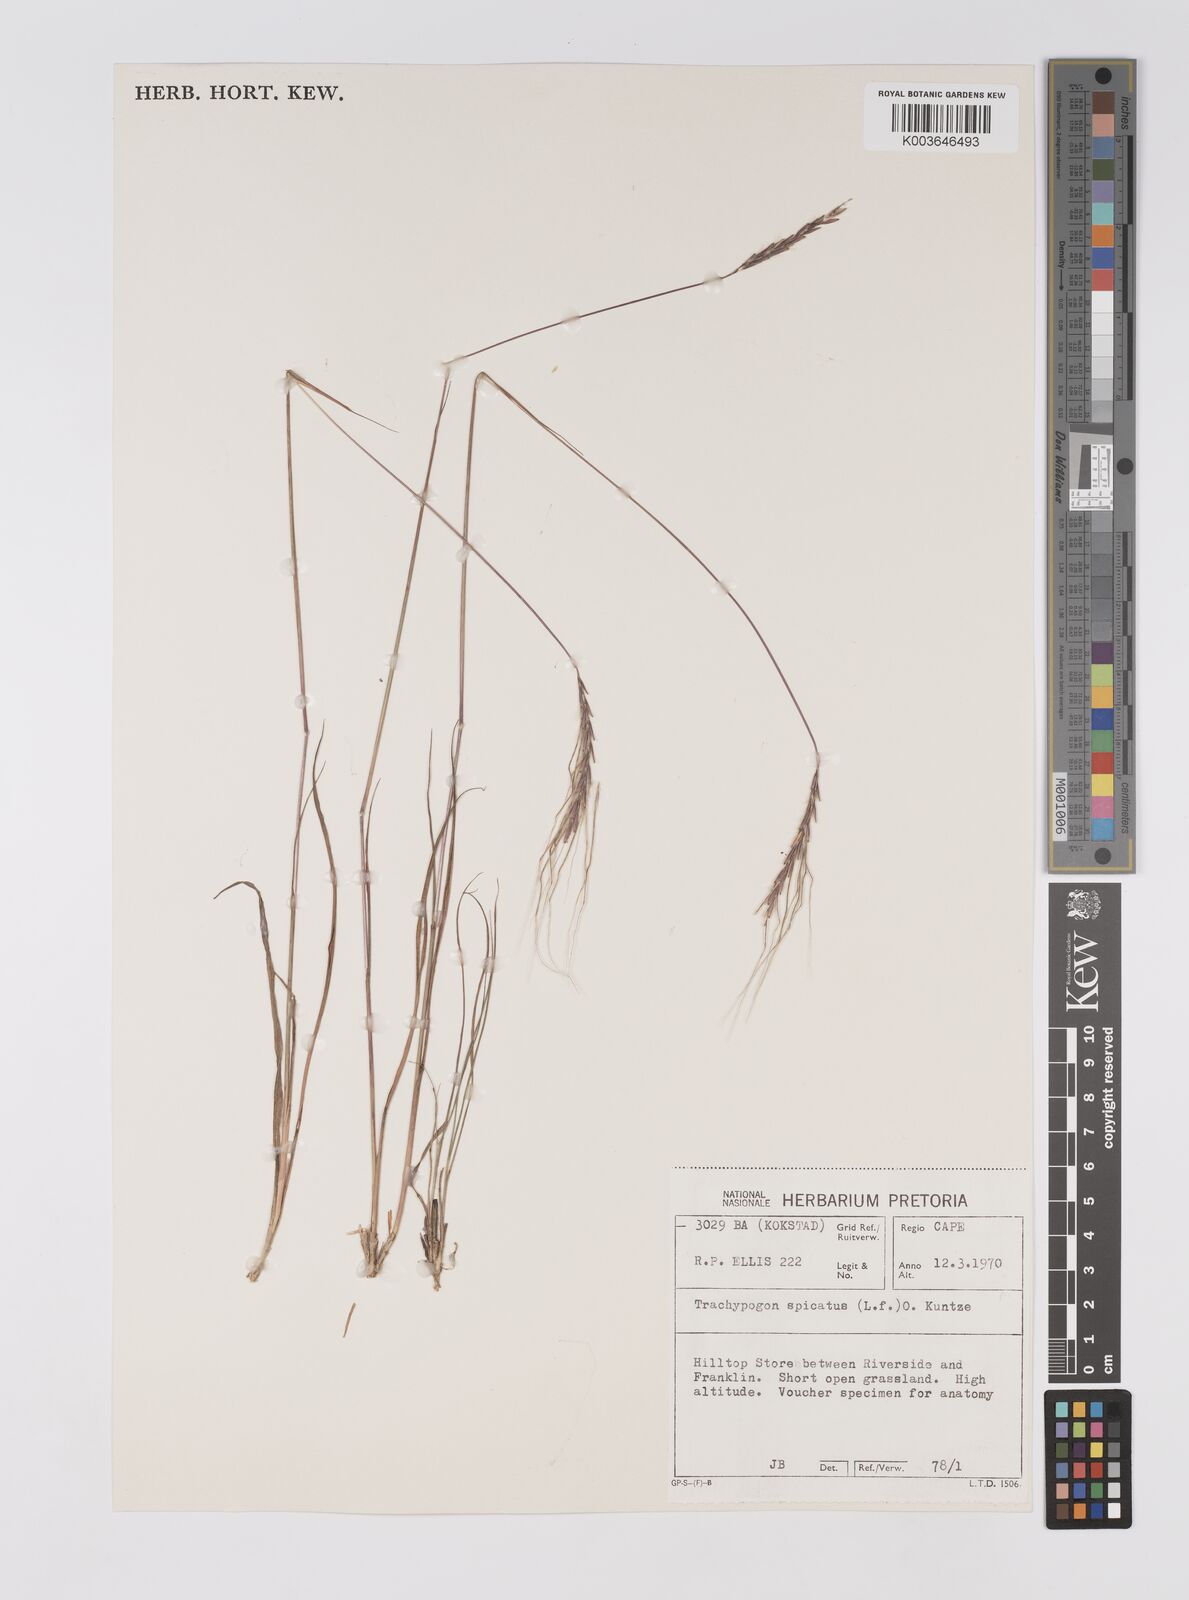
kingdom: Plantae
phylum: Tracheophyta
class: Liliopsida
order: Poales
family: Poaceae
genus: Trachypogon
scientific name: Trachypogon spicatus
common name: Crinkle-awn
